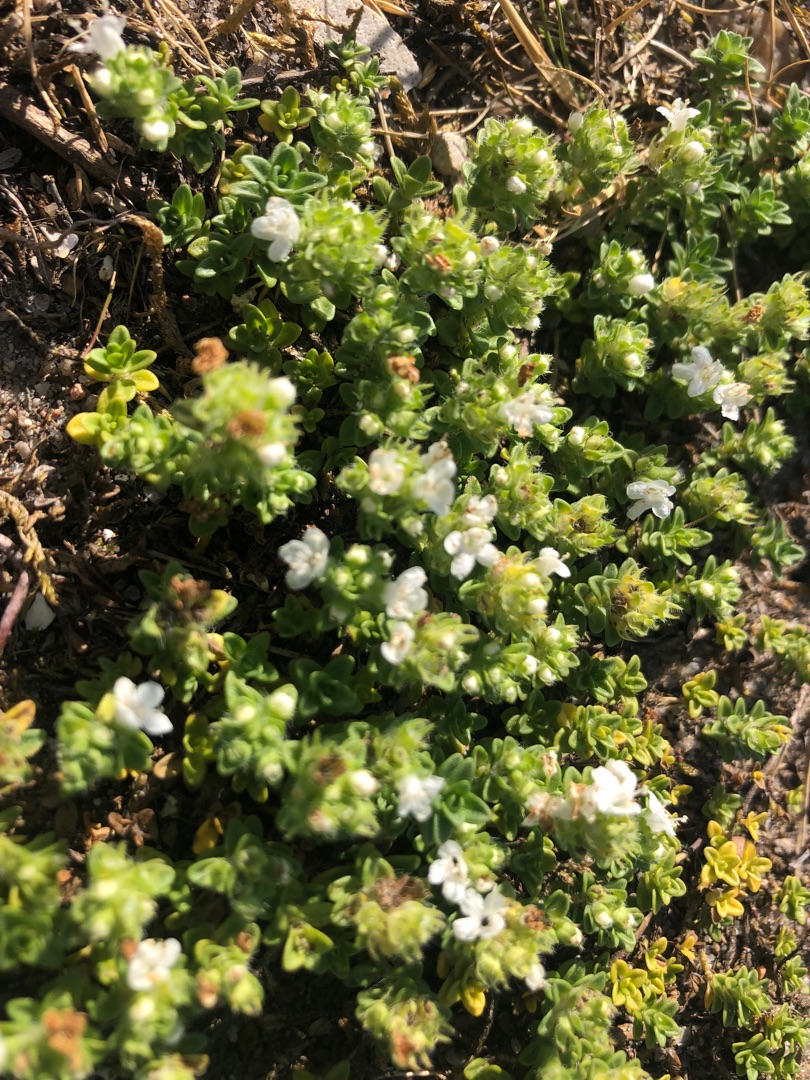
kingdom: Plantae
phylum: Tracheophyta
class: Magnoliopsida
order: Lamiales
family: Lamiaceae
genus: Thymus
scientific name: Thymus serpyllum
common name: Smalbladet timian
